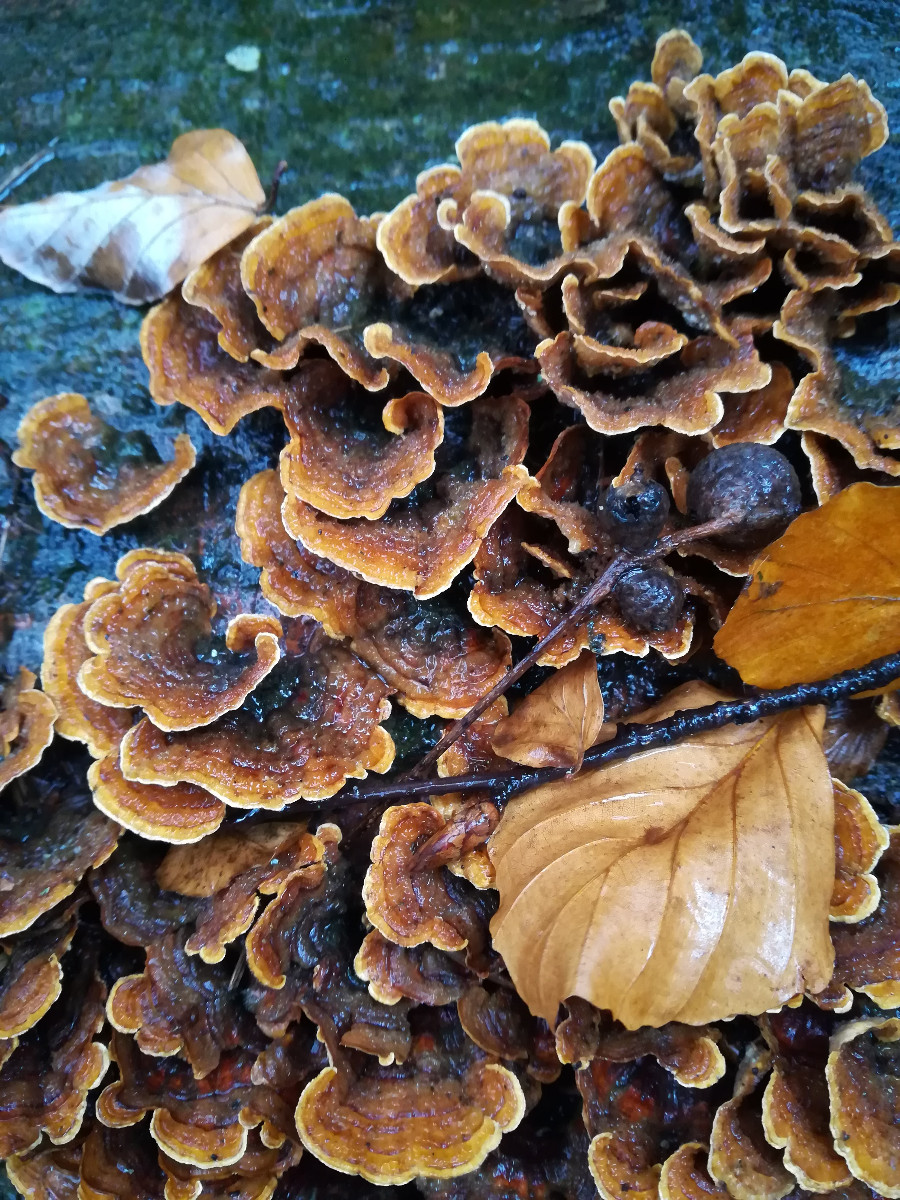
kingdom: Fungi
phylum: Basidiomycota
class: Agaricomycetes
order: Russulales
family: Stereaceae
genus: Stereum
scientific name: Stereum hirsutum
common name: håret lædersvamp
